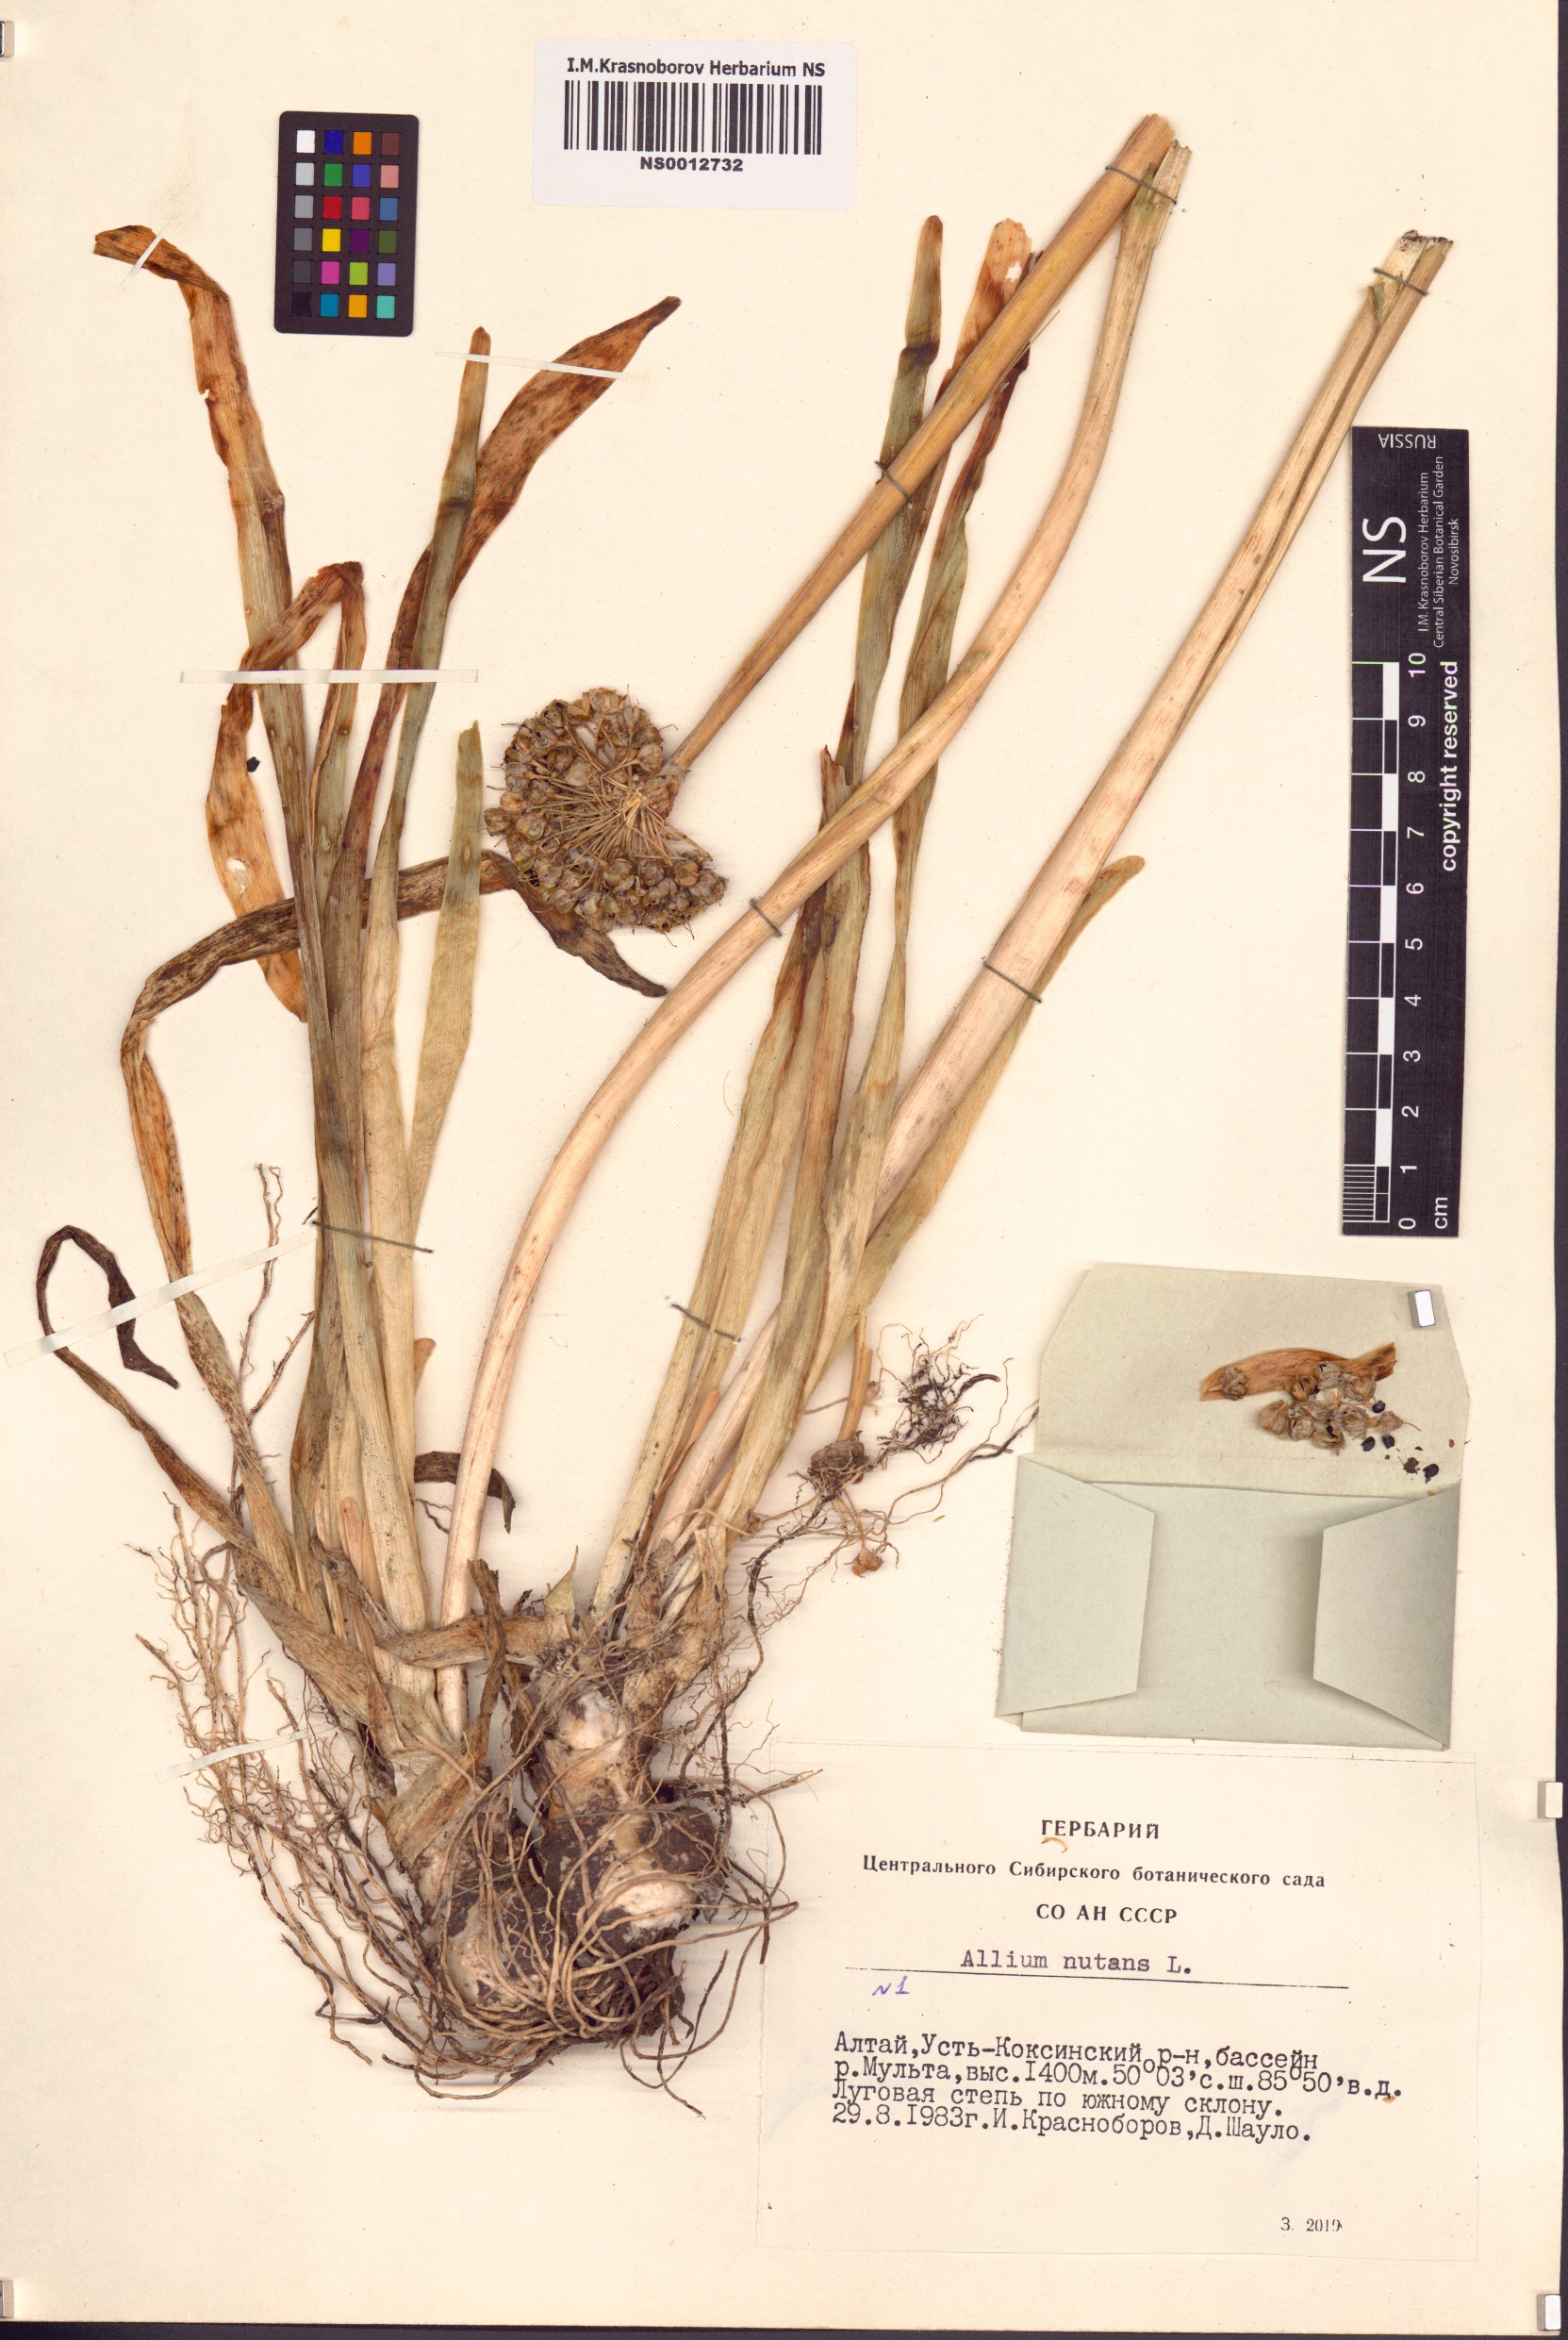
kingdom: Plantae
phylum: Tracheophyta
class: Liliopsida
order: Asparagales
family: Amaryllidaceae
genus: Allium
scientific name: Allium nutans
